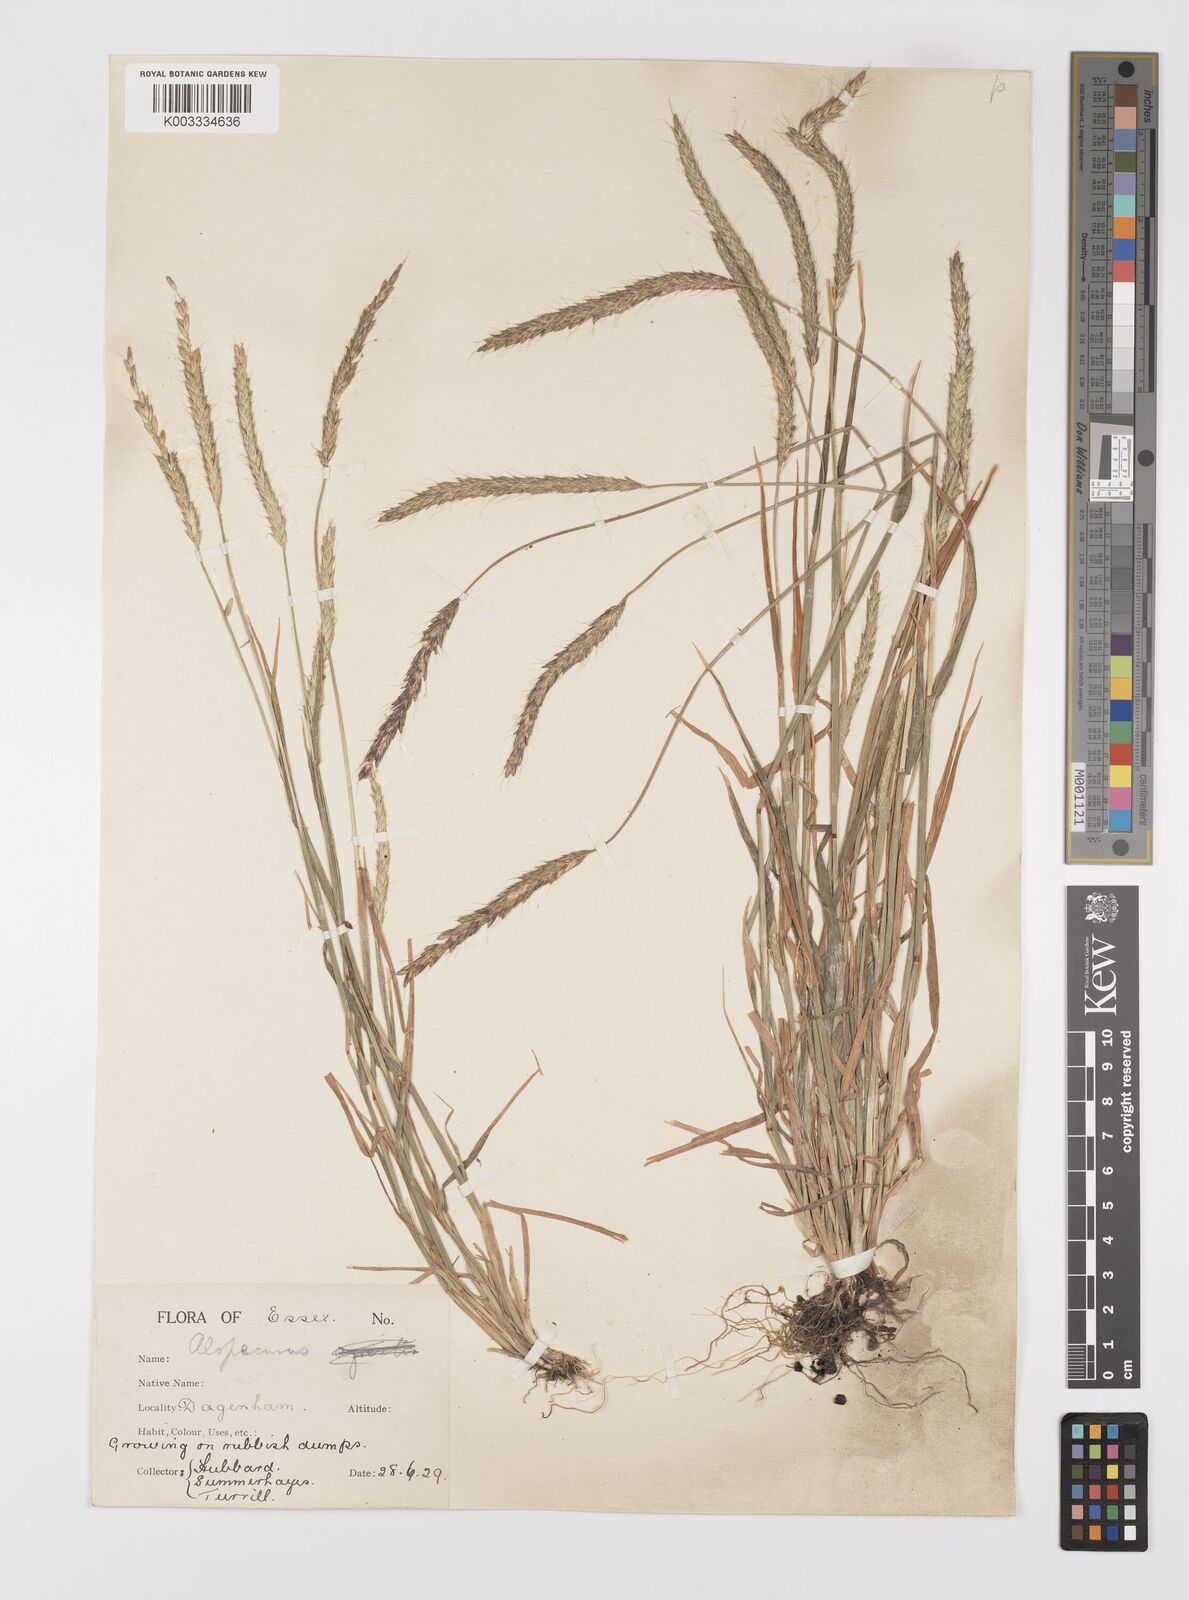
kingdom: Plantae
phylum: Tracheophyta
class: Liliopsida
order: Poales
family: Poaceae
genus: Alopecurus
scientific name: Alopecurus myosuroides
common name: Black-grass
